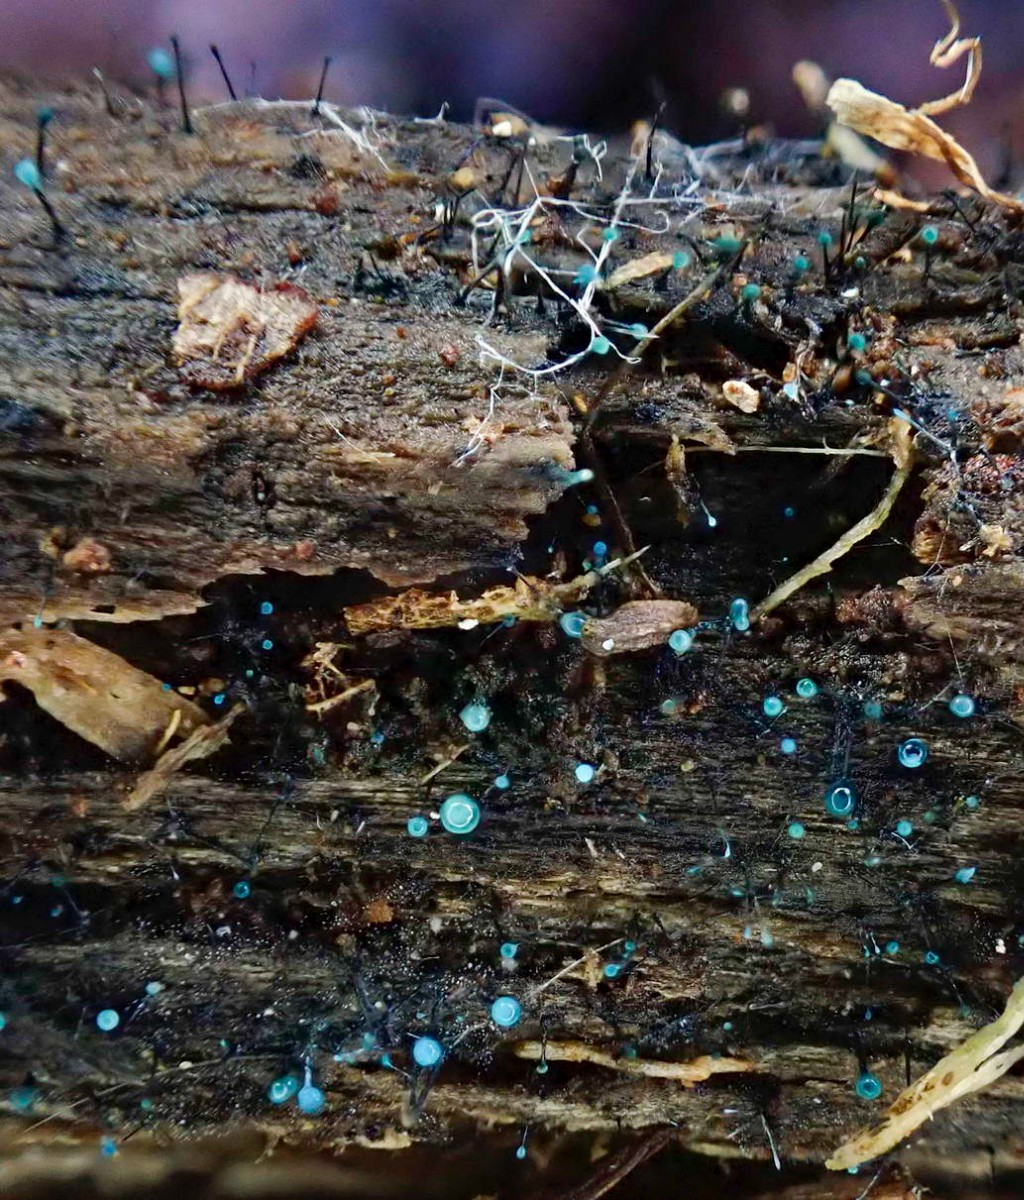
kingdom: Fungi
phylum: Ascomycota
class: Leotiomycetes
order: Leotiales
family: Tympanidaceae
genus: Dendrostilbella
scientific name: Dendrostilbella smaragdina
